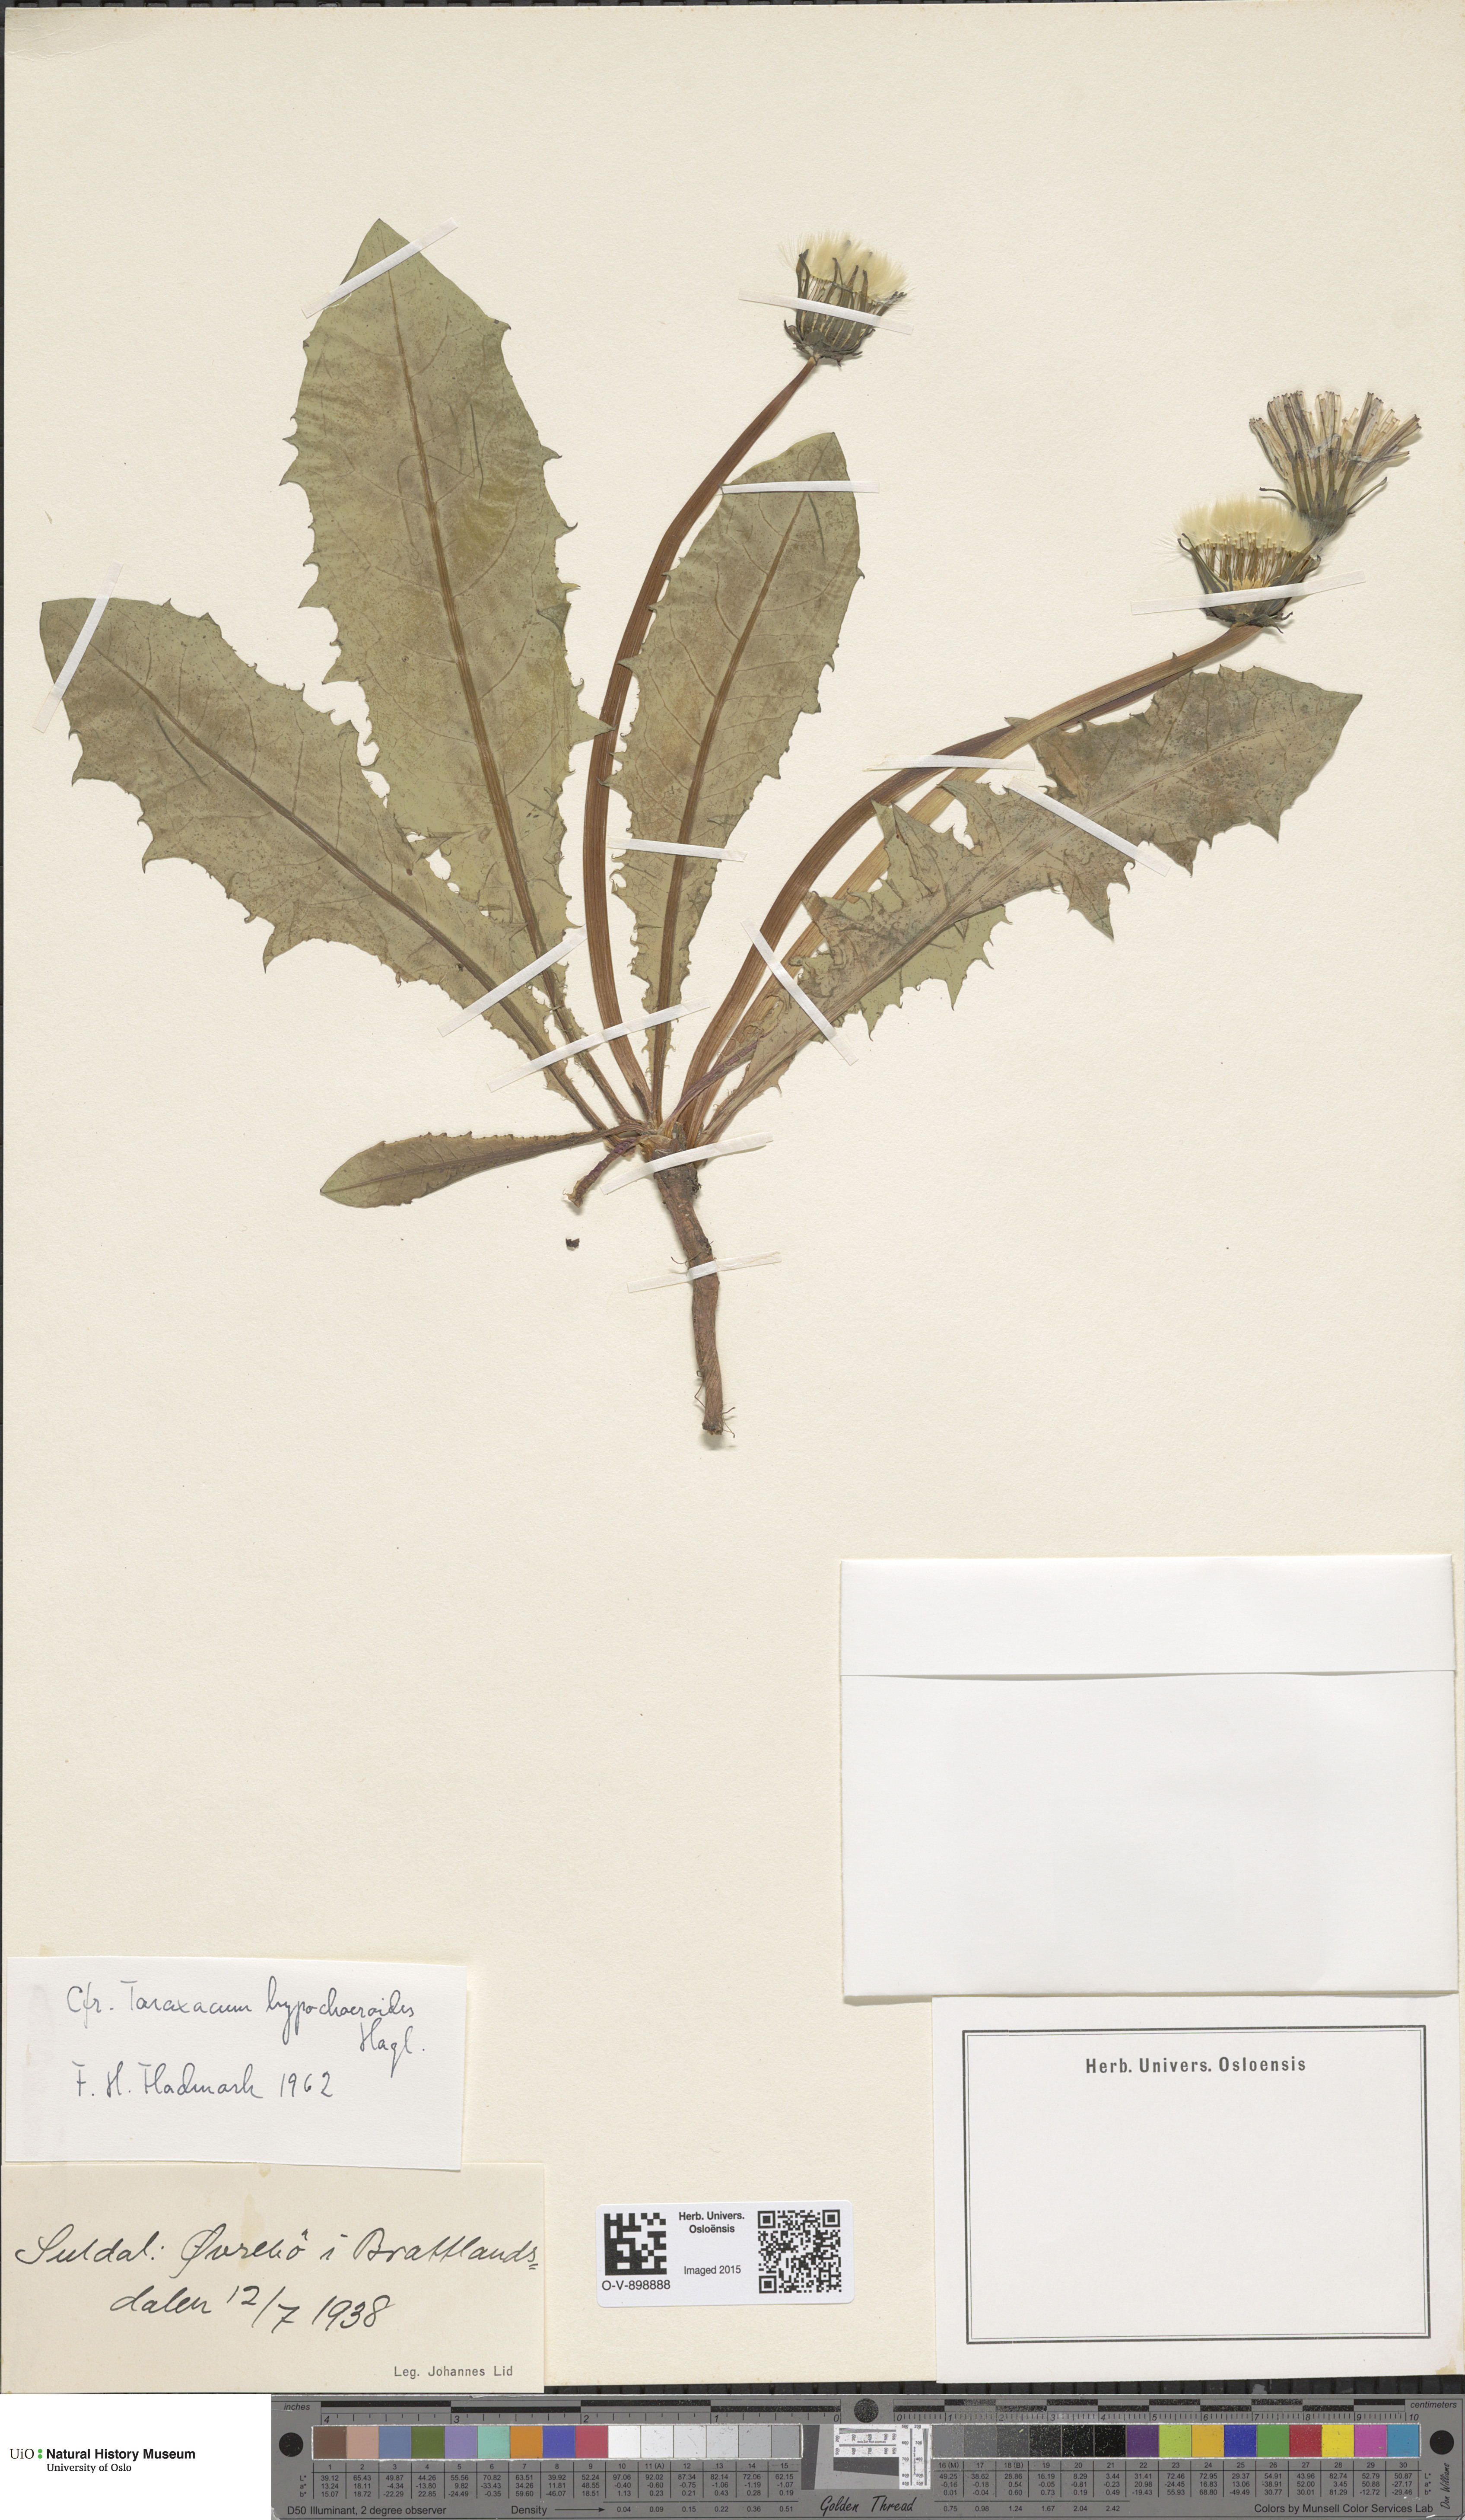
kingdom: Plantae
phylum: Tracheophyta
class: Magnoliopsida
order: Asterales
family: Asteraceae
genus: Taraxacum
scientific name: Taraxacum hypochoeroides
